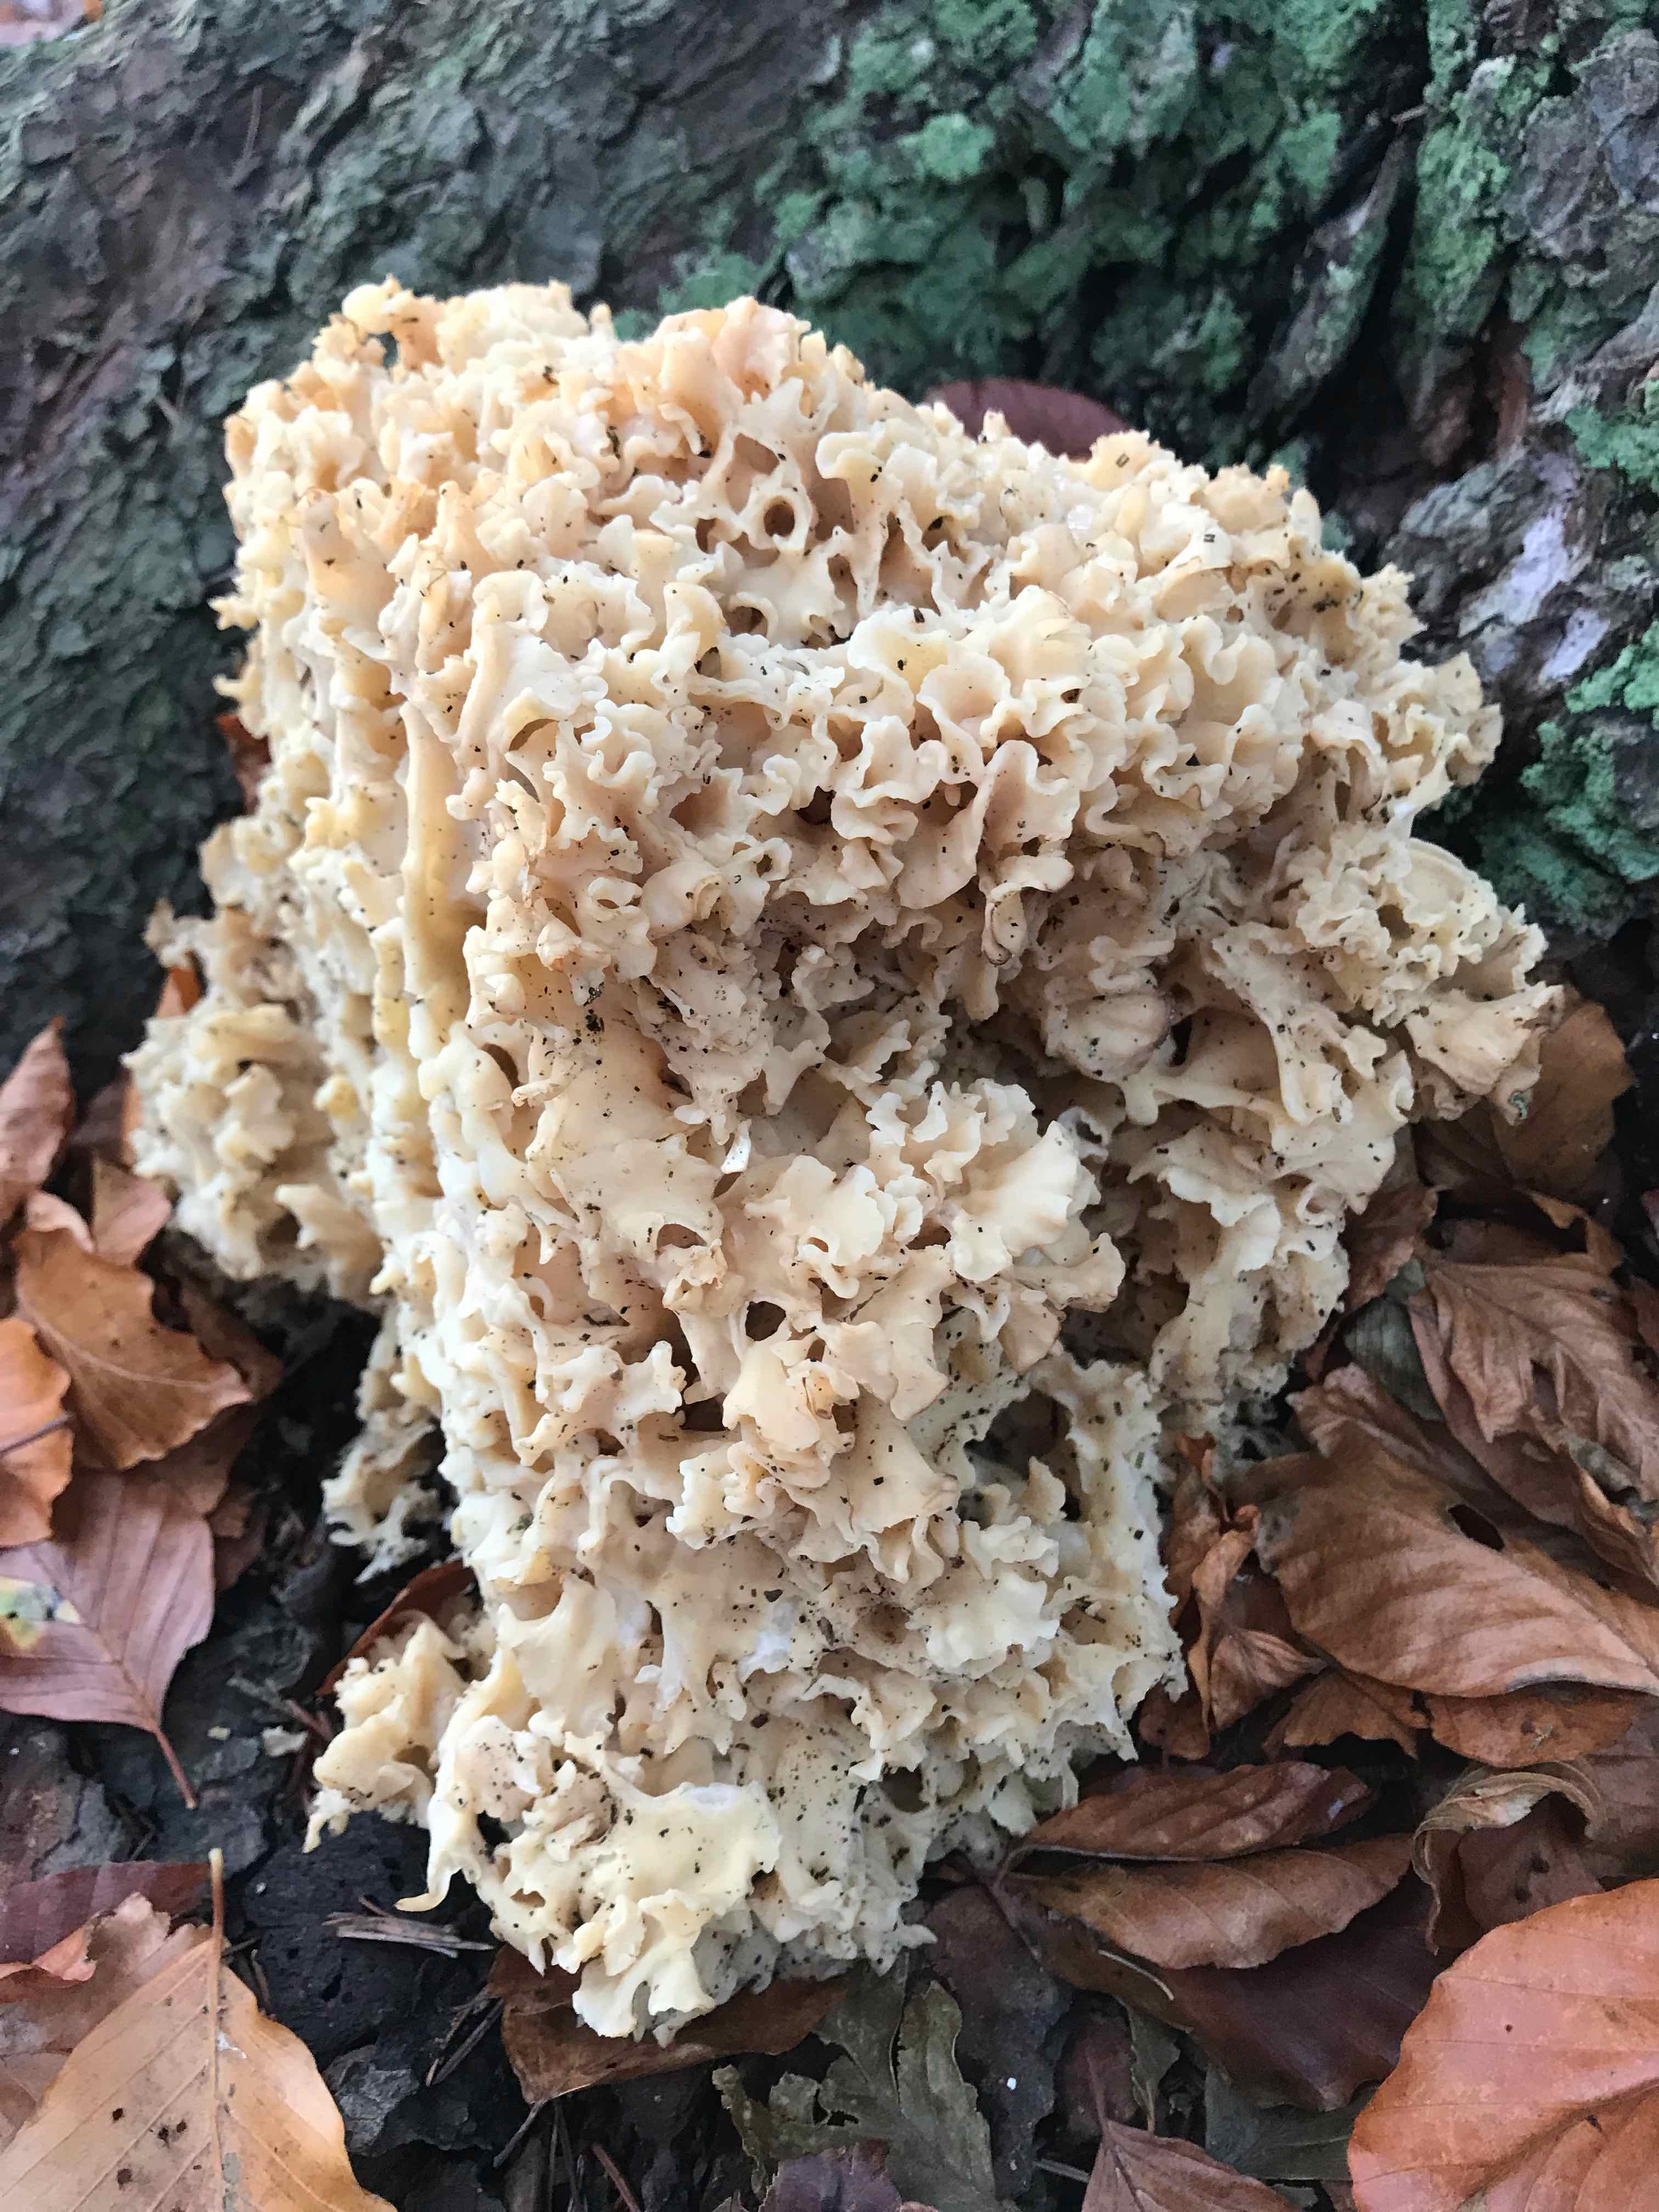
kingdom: Fungi
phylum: Basidiomycota
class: Agaricomycetes
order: Polyporales
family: Sparassidaceae
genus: Sparassis
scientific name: Sparassis crispa
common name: kruset blomkålssvamp
